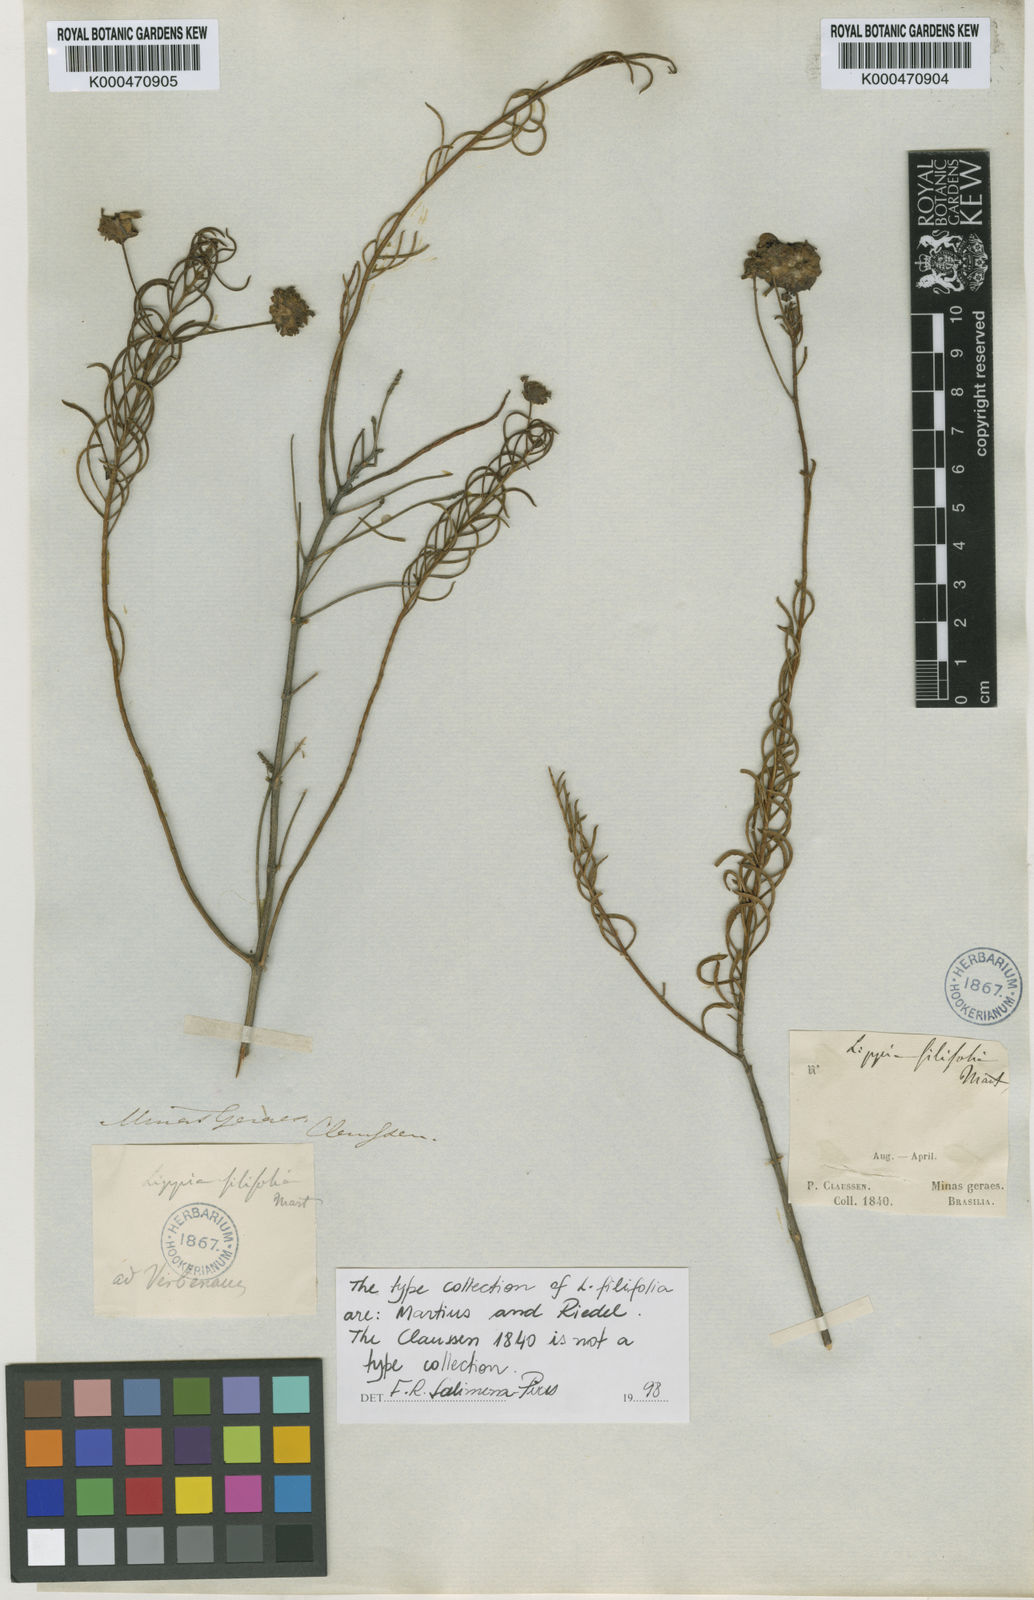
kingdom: Plantae
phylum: Tracheophyta
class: Magnoliopsida
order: Lamiales
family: Verbenaceae
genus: Lippia
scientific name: Lippia filifolia
